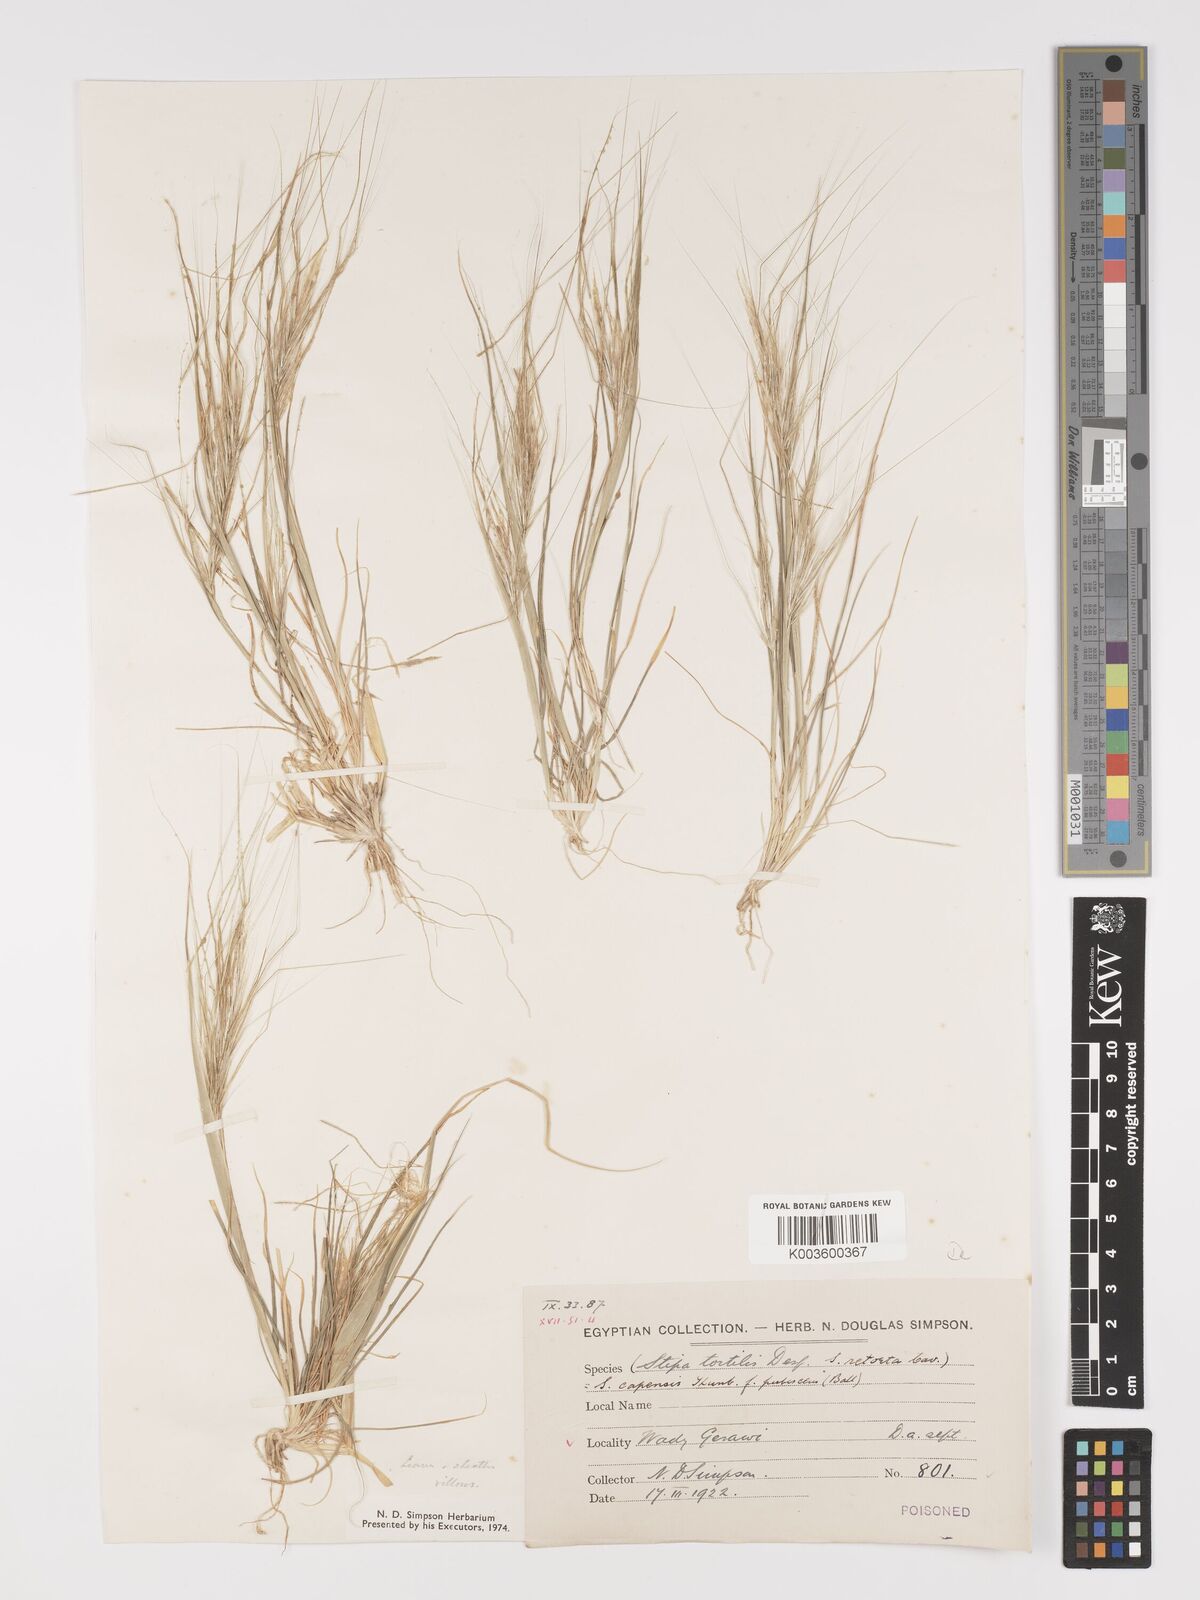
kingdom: Plantae
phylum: Tracheophyta
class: Liliopsida
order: Poales
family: Poaceae
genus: Stipellula
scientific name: Stipellula capensis
